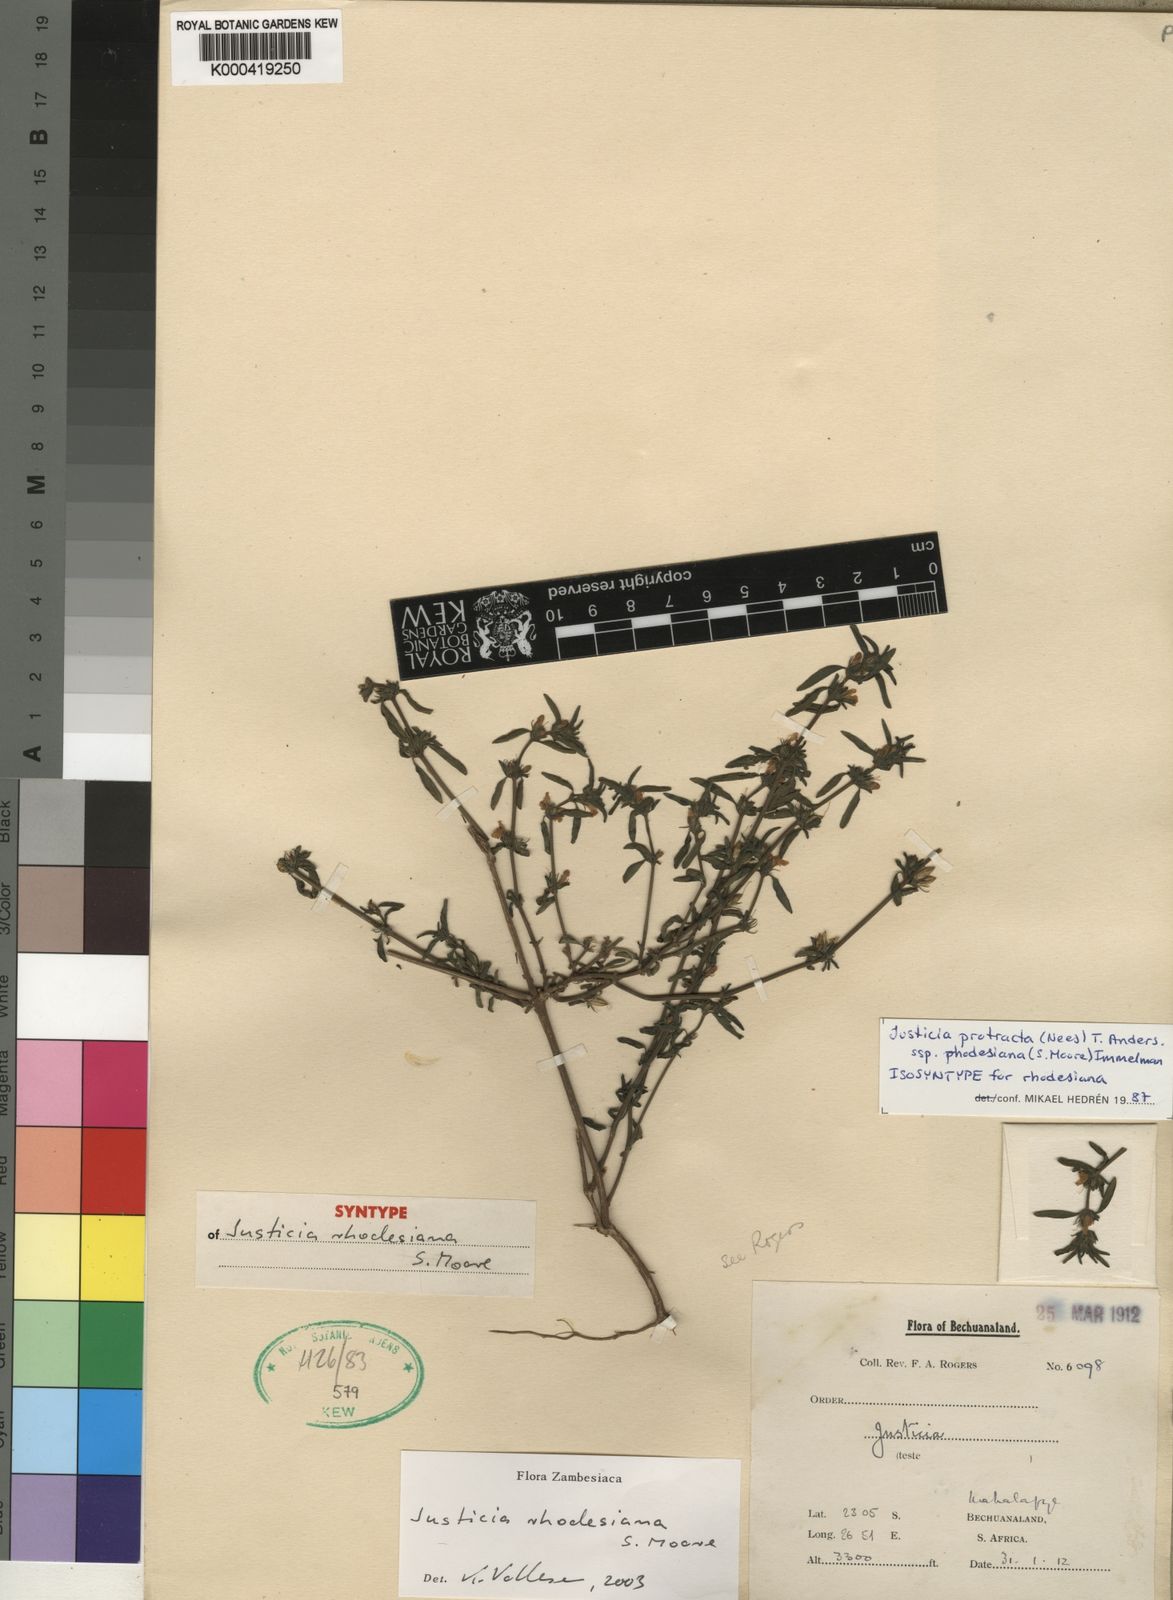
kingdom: Plantae
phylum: Tracheophyta
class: Magnoliopsida
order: Lamiales
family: Acanthaceae
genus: Justicia
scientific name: Justicia rhodesiana
